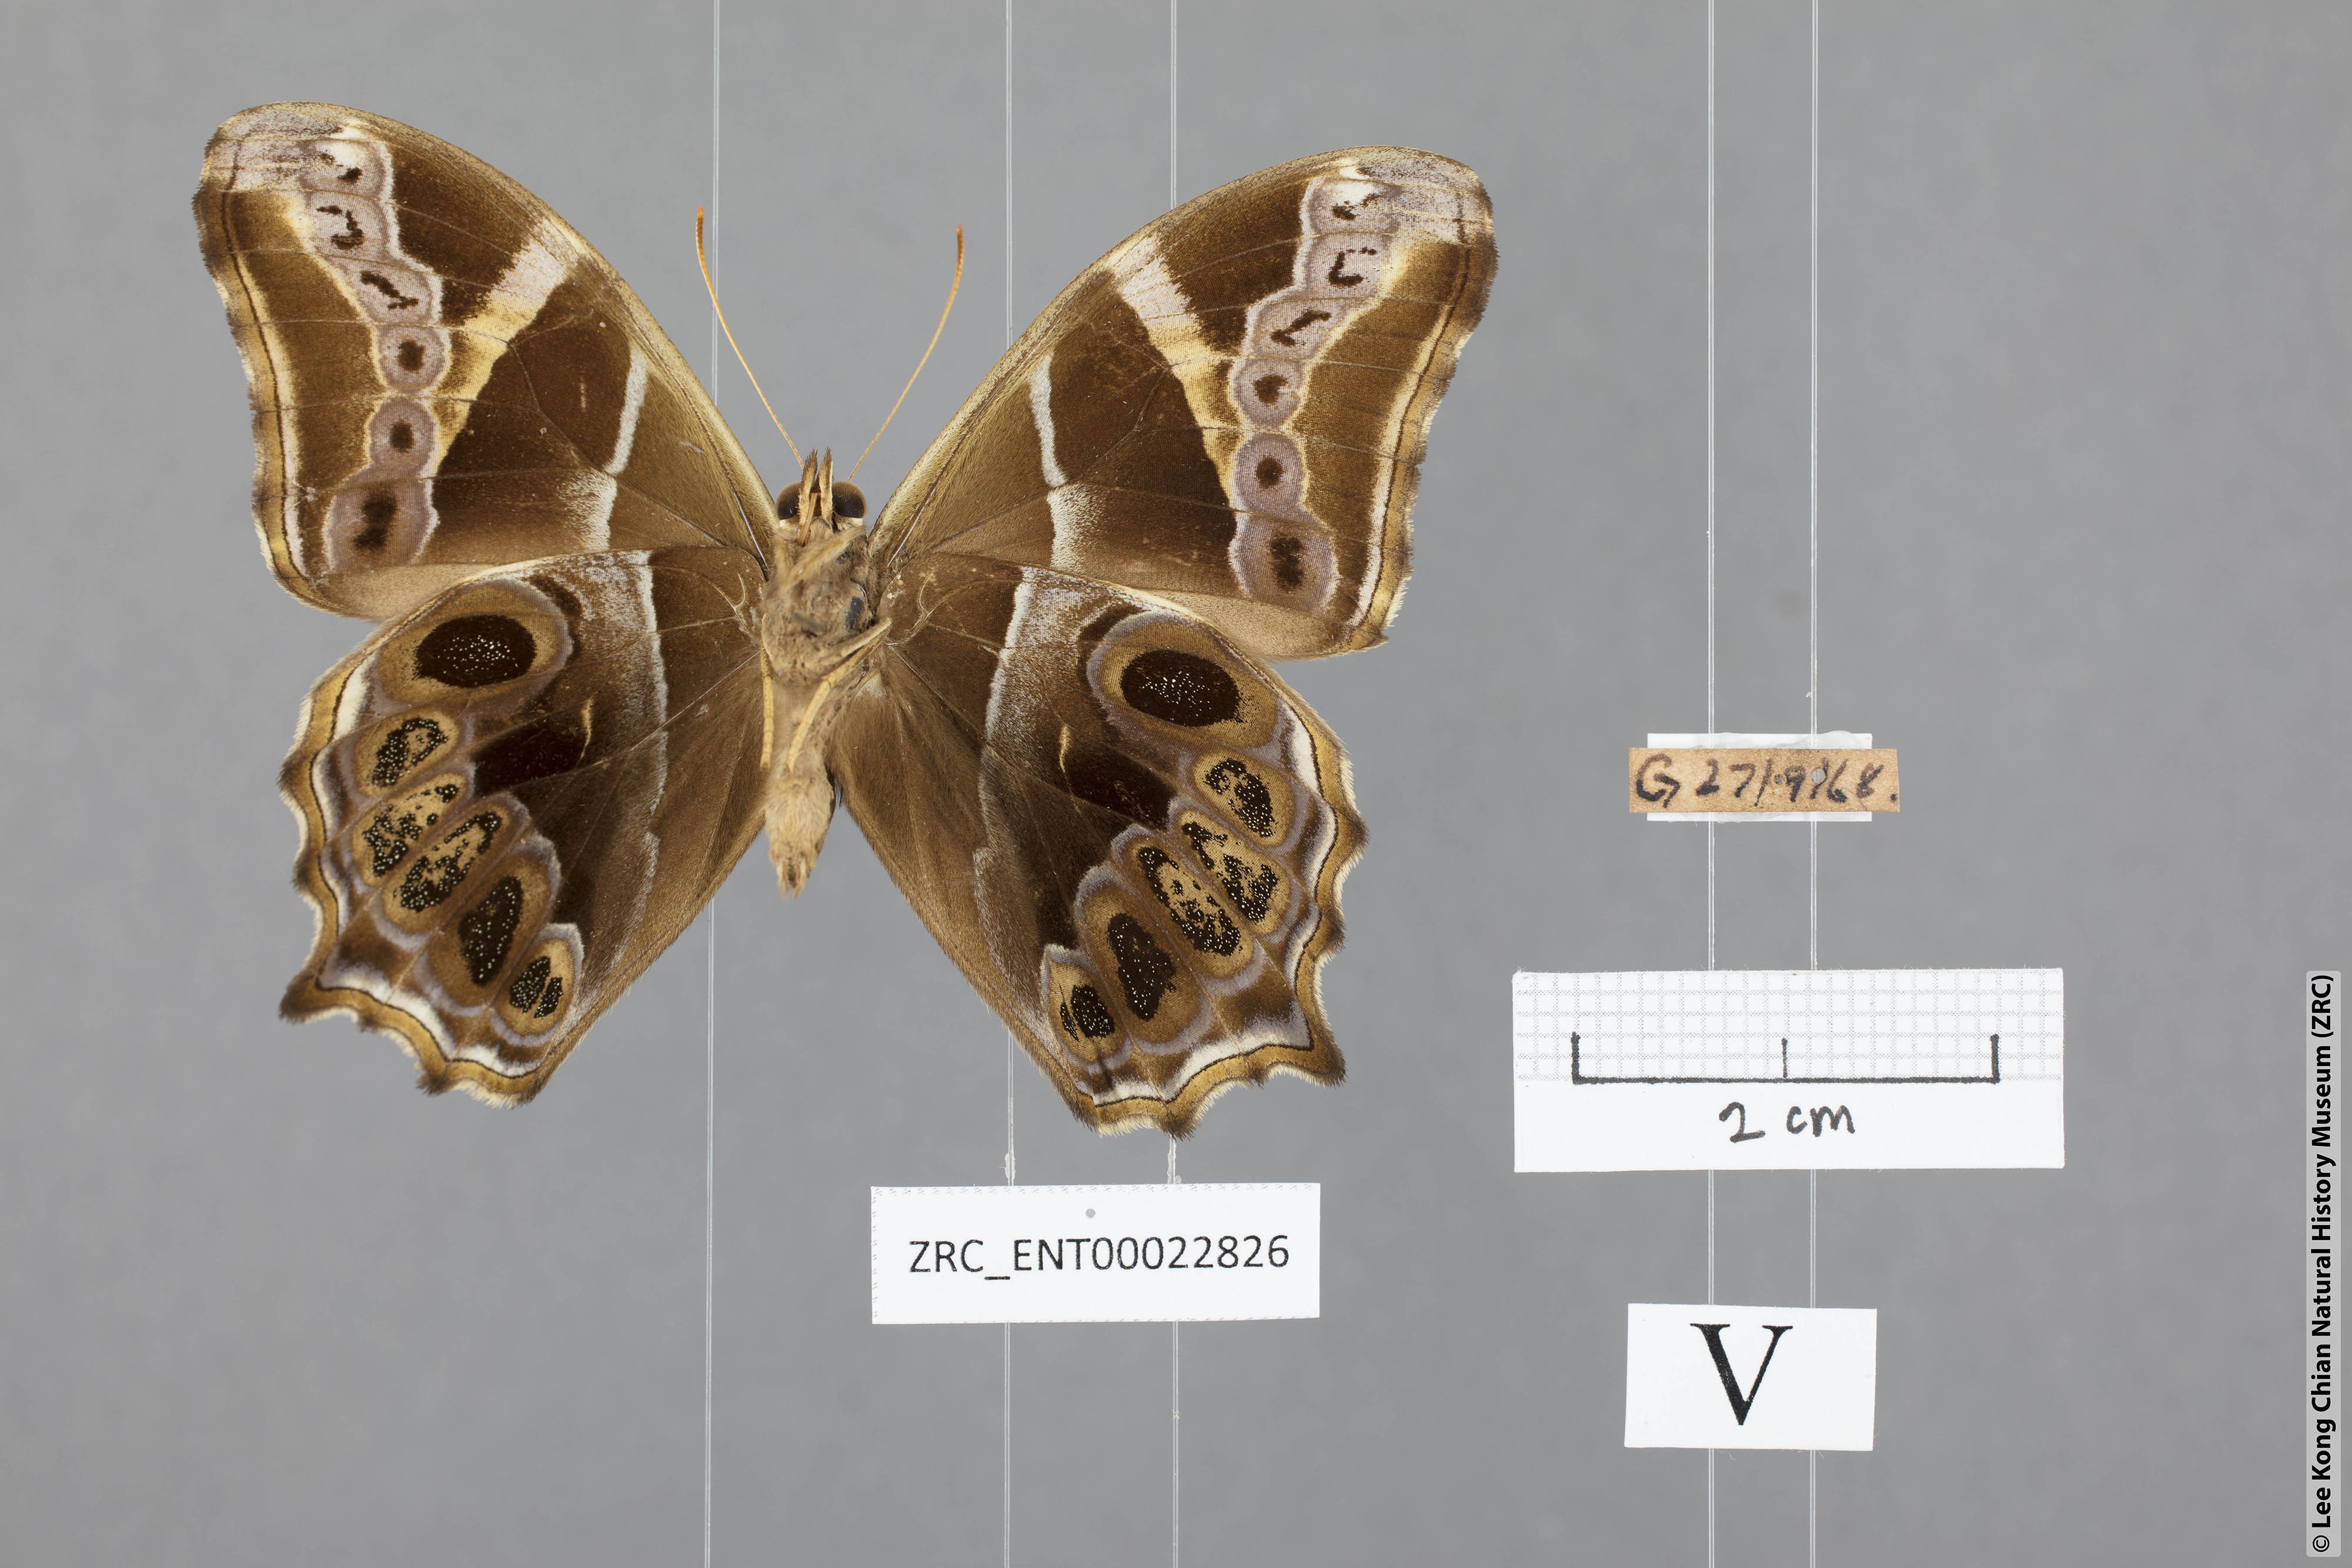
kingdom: Animalia
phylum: Arthropoda
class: Insecta
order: Lepidoptera
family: Nymphalidae
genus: Lethe
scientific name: Lethe europa
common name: Bamboo treebrown
